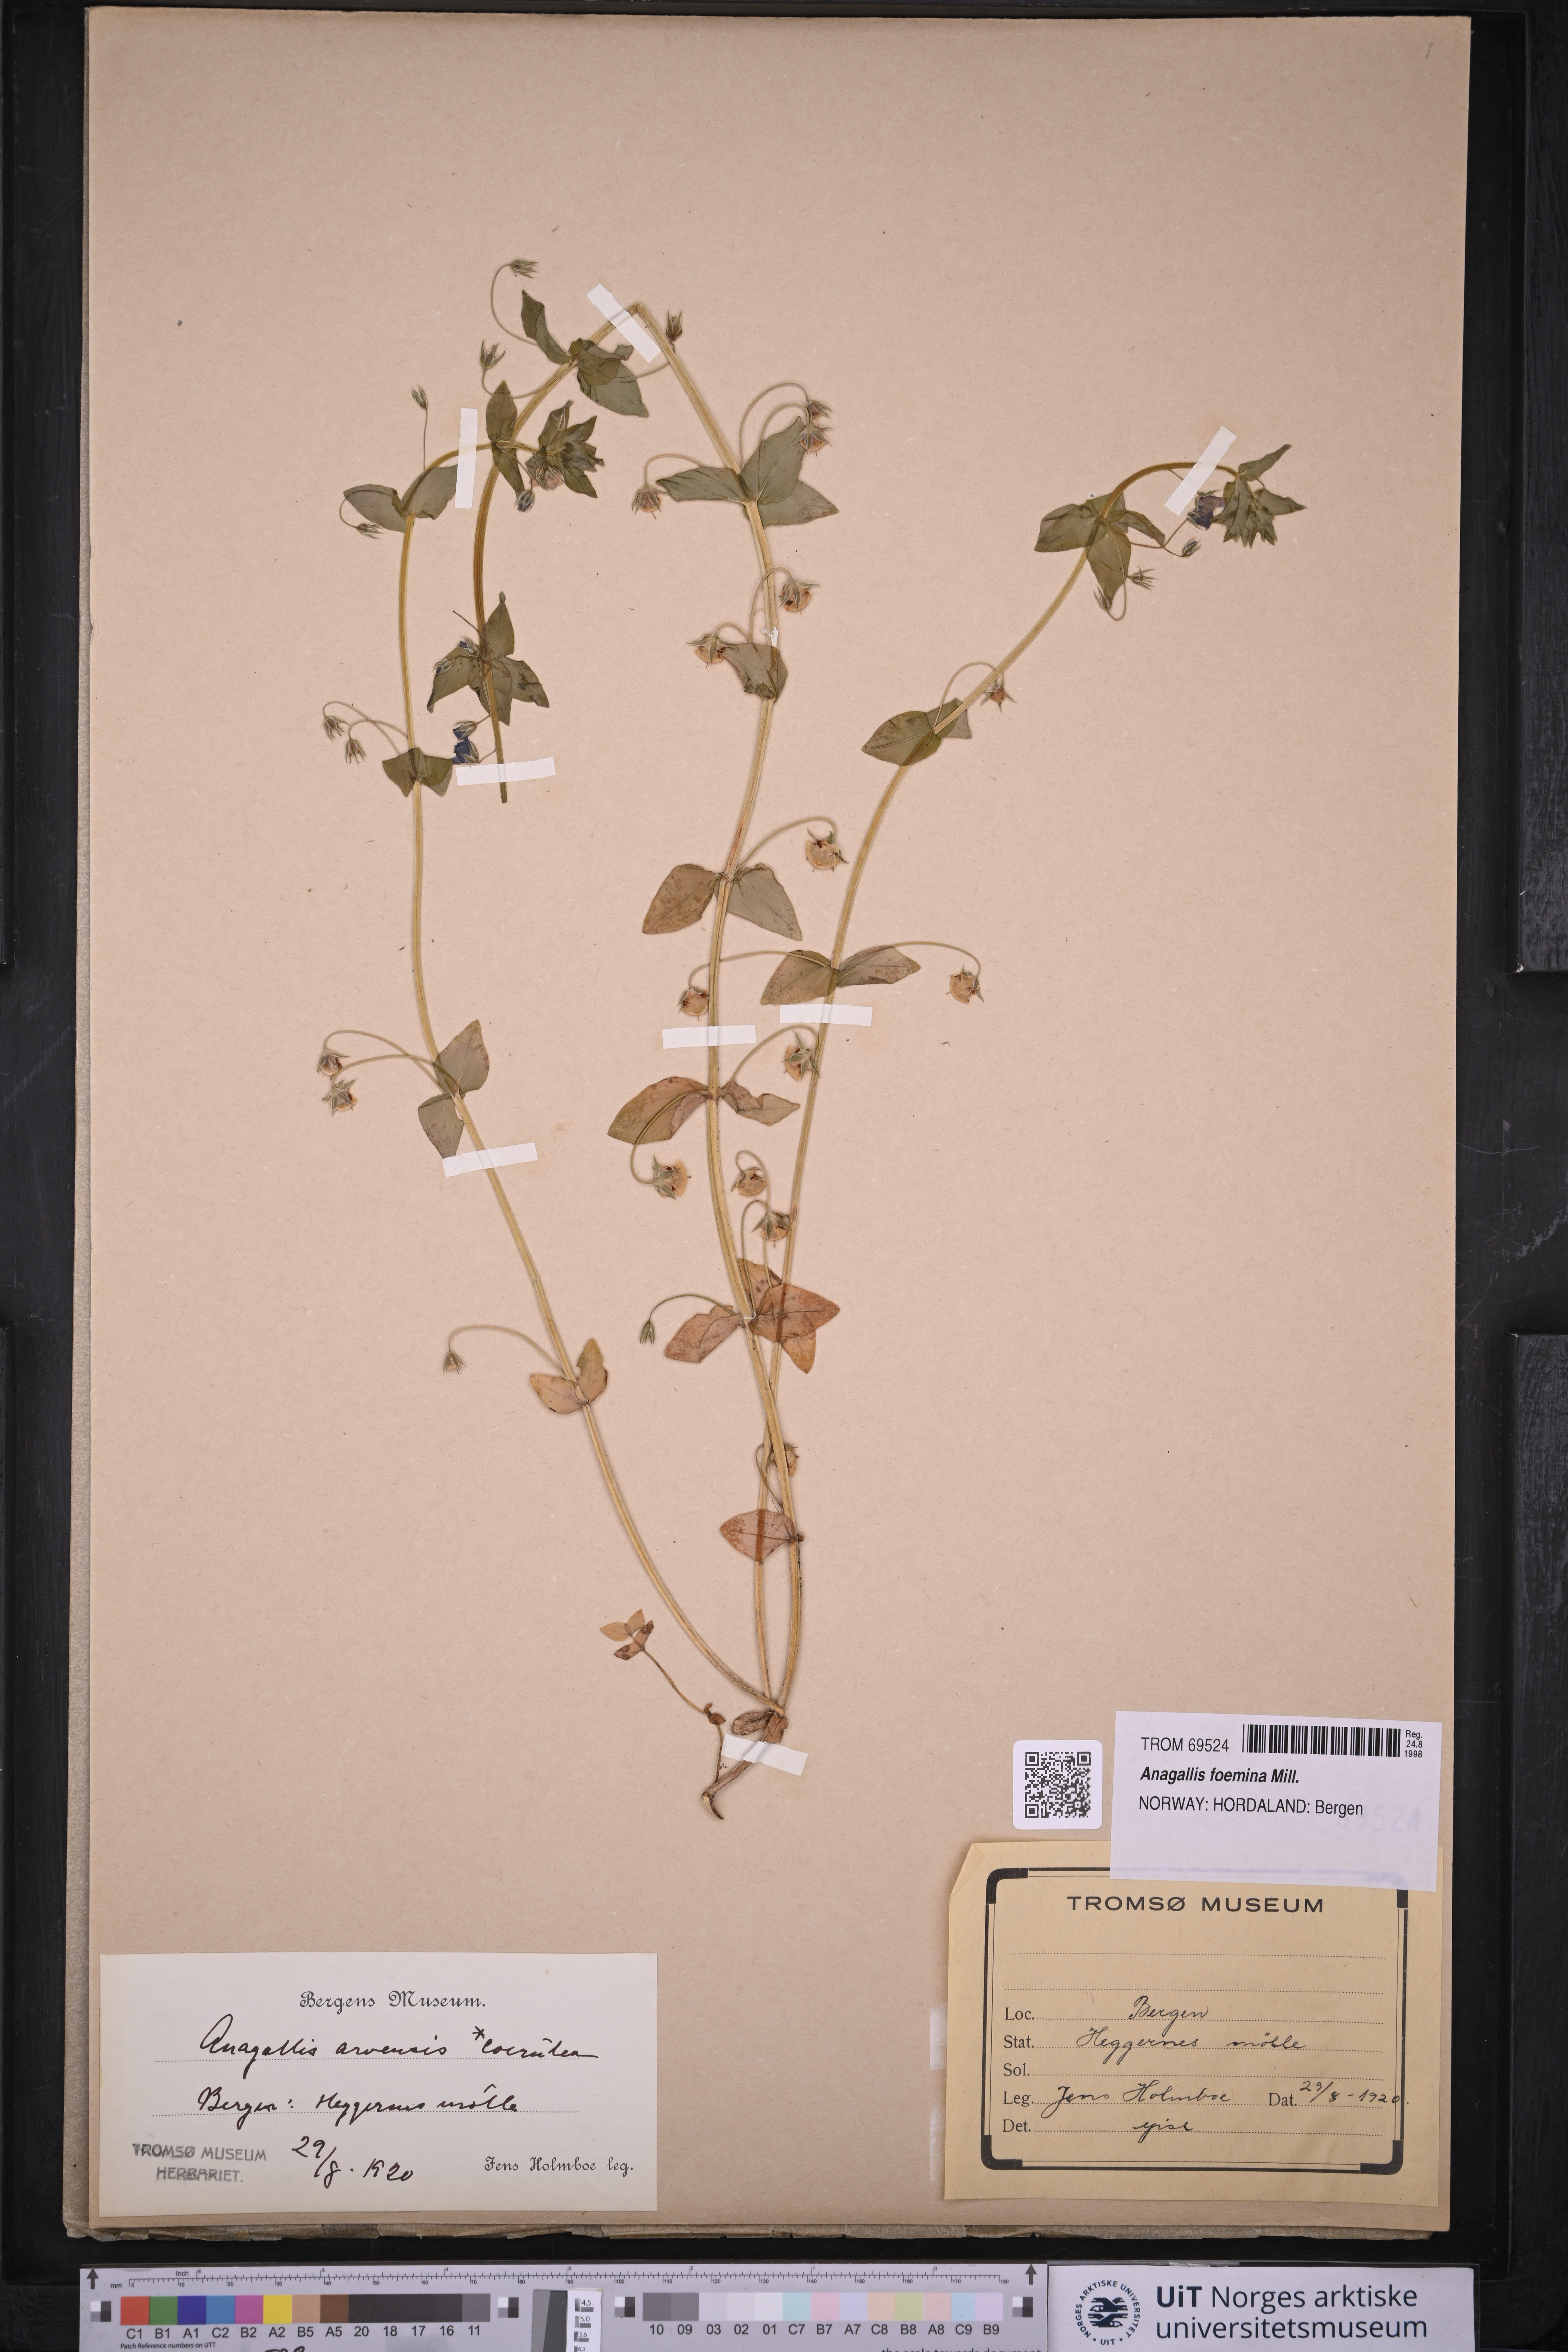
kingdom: Plantae
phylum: Tracheophyta
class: Magnoliopsida
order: Ericales
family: Primulaceae
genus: Lysimachia
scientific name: Lysimachia foemina
